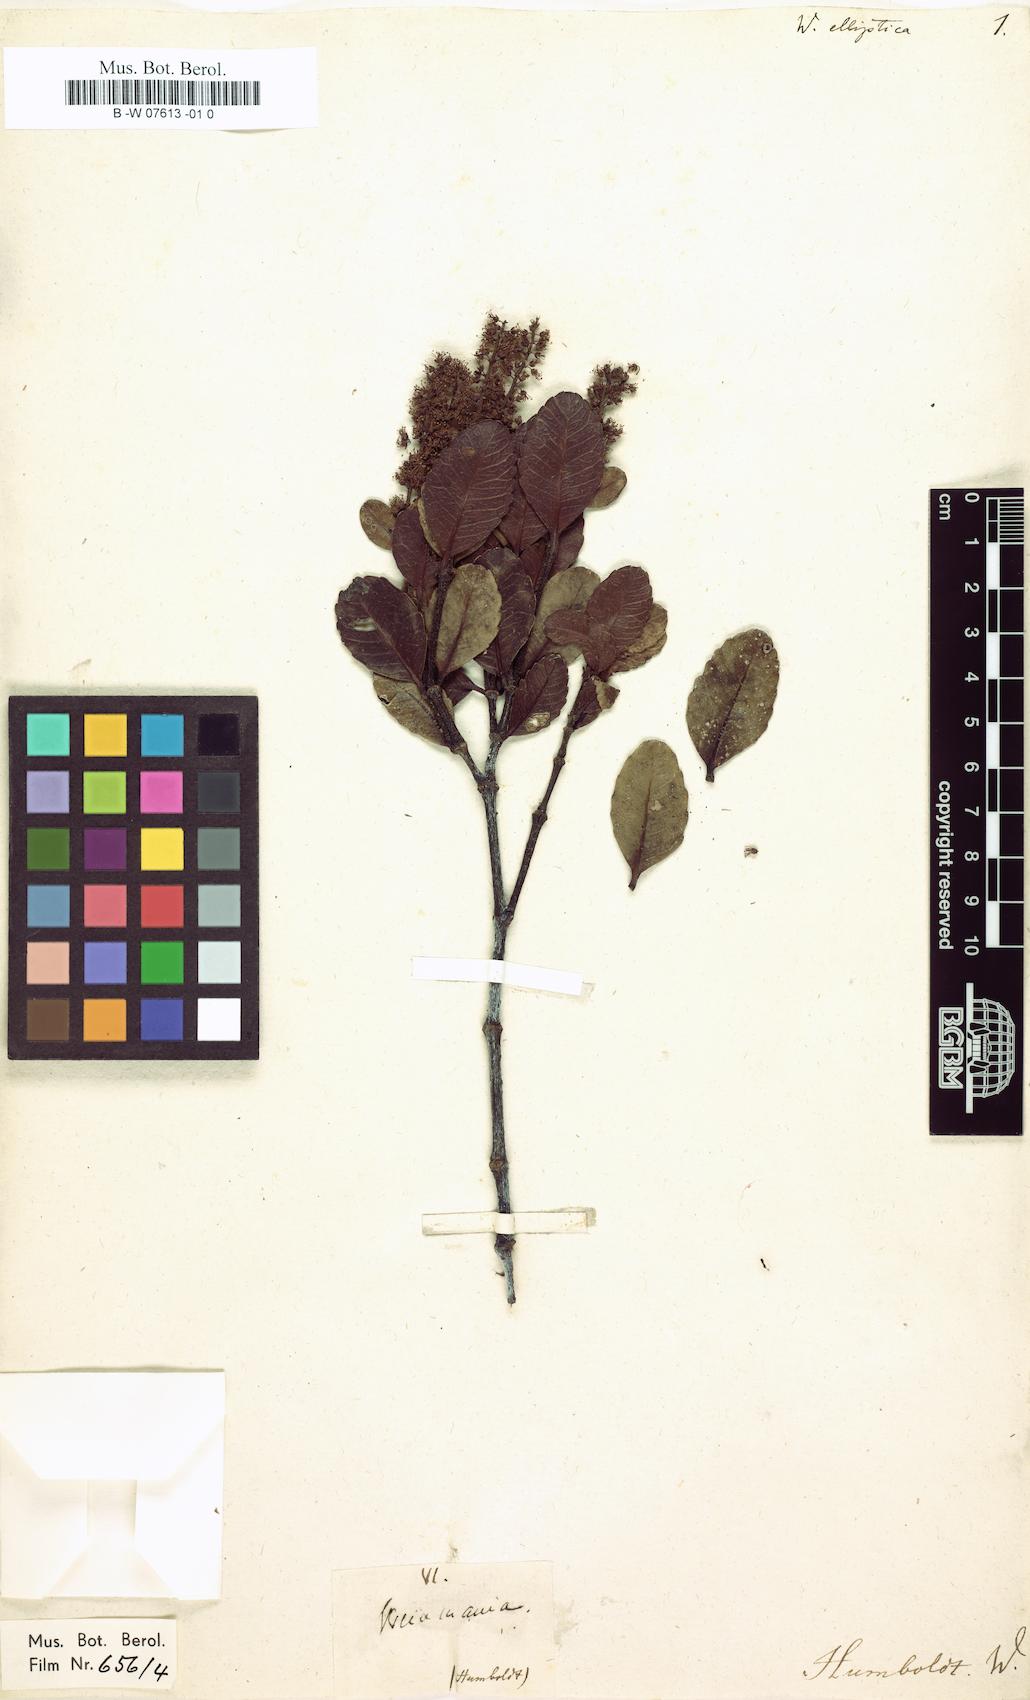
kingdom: Plantae
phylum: Tracheophyta
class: Magnoliopsida
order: Oxalidales
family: Cunoniaceae
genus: Weinmannia
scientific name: Weinmannia elliptica
